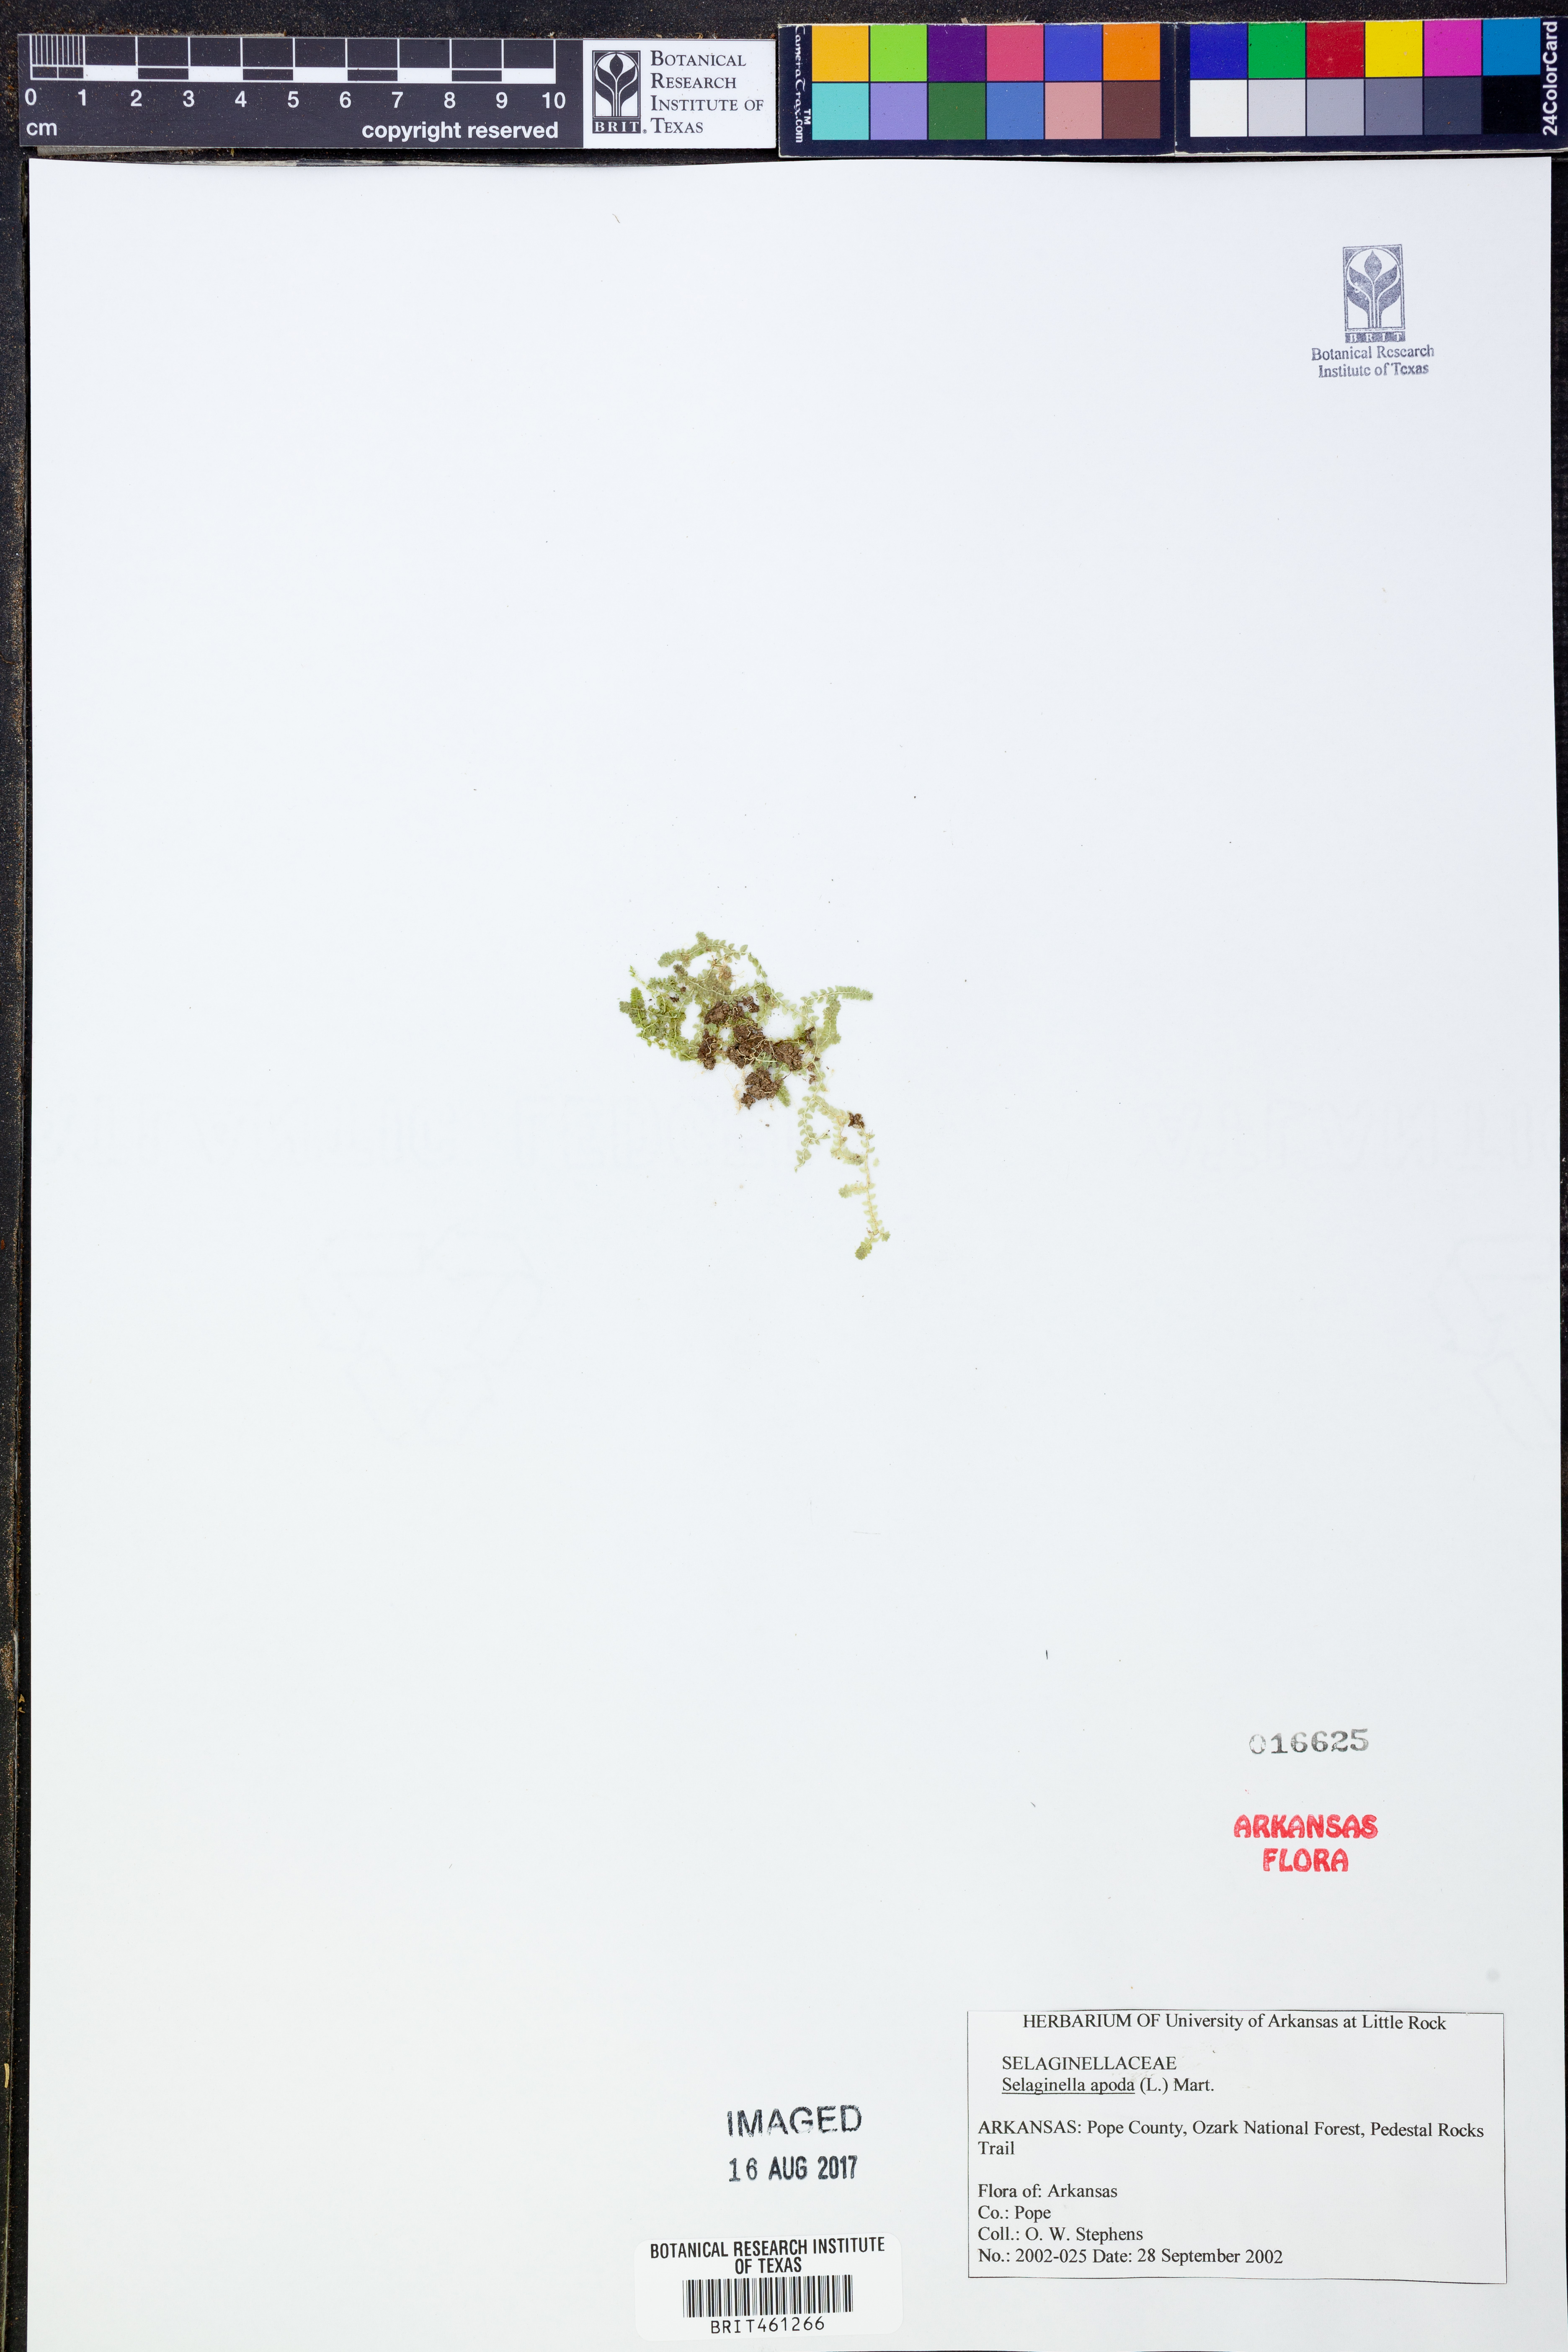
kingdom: Plantae
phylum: Tracheophyta
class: Lycopodiopsida
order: Selaginellales
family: Selaginellaceae
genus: Selaginella
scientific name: Selaginella apoda
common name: Creeping spikemoss
